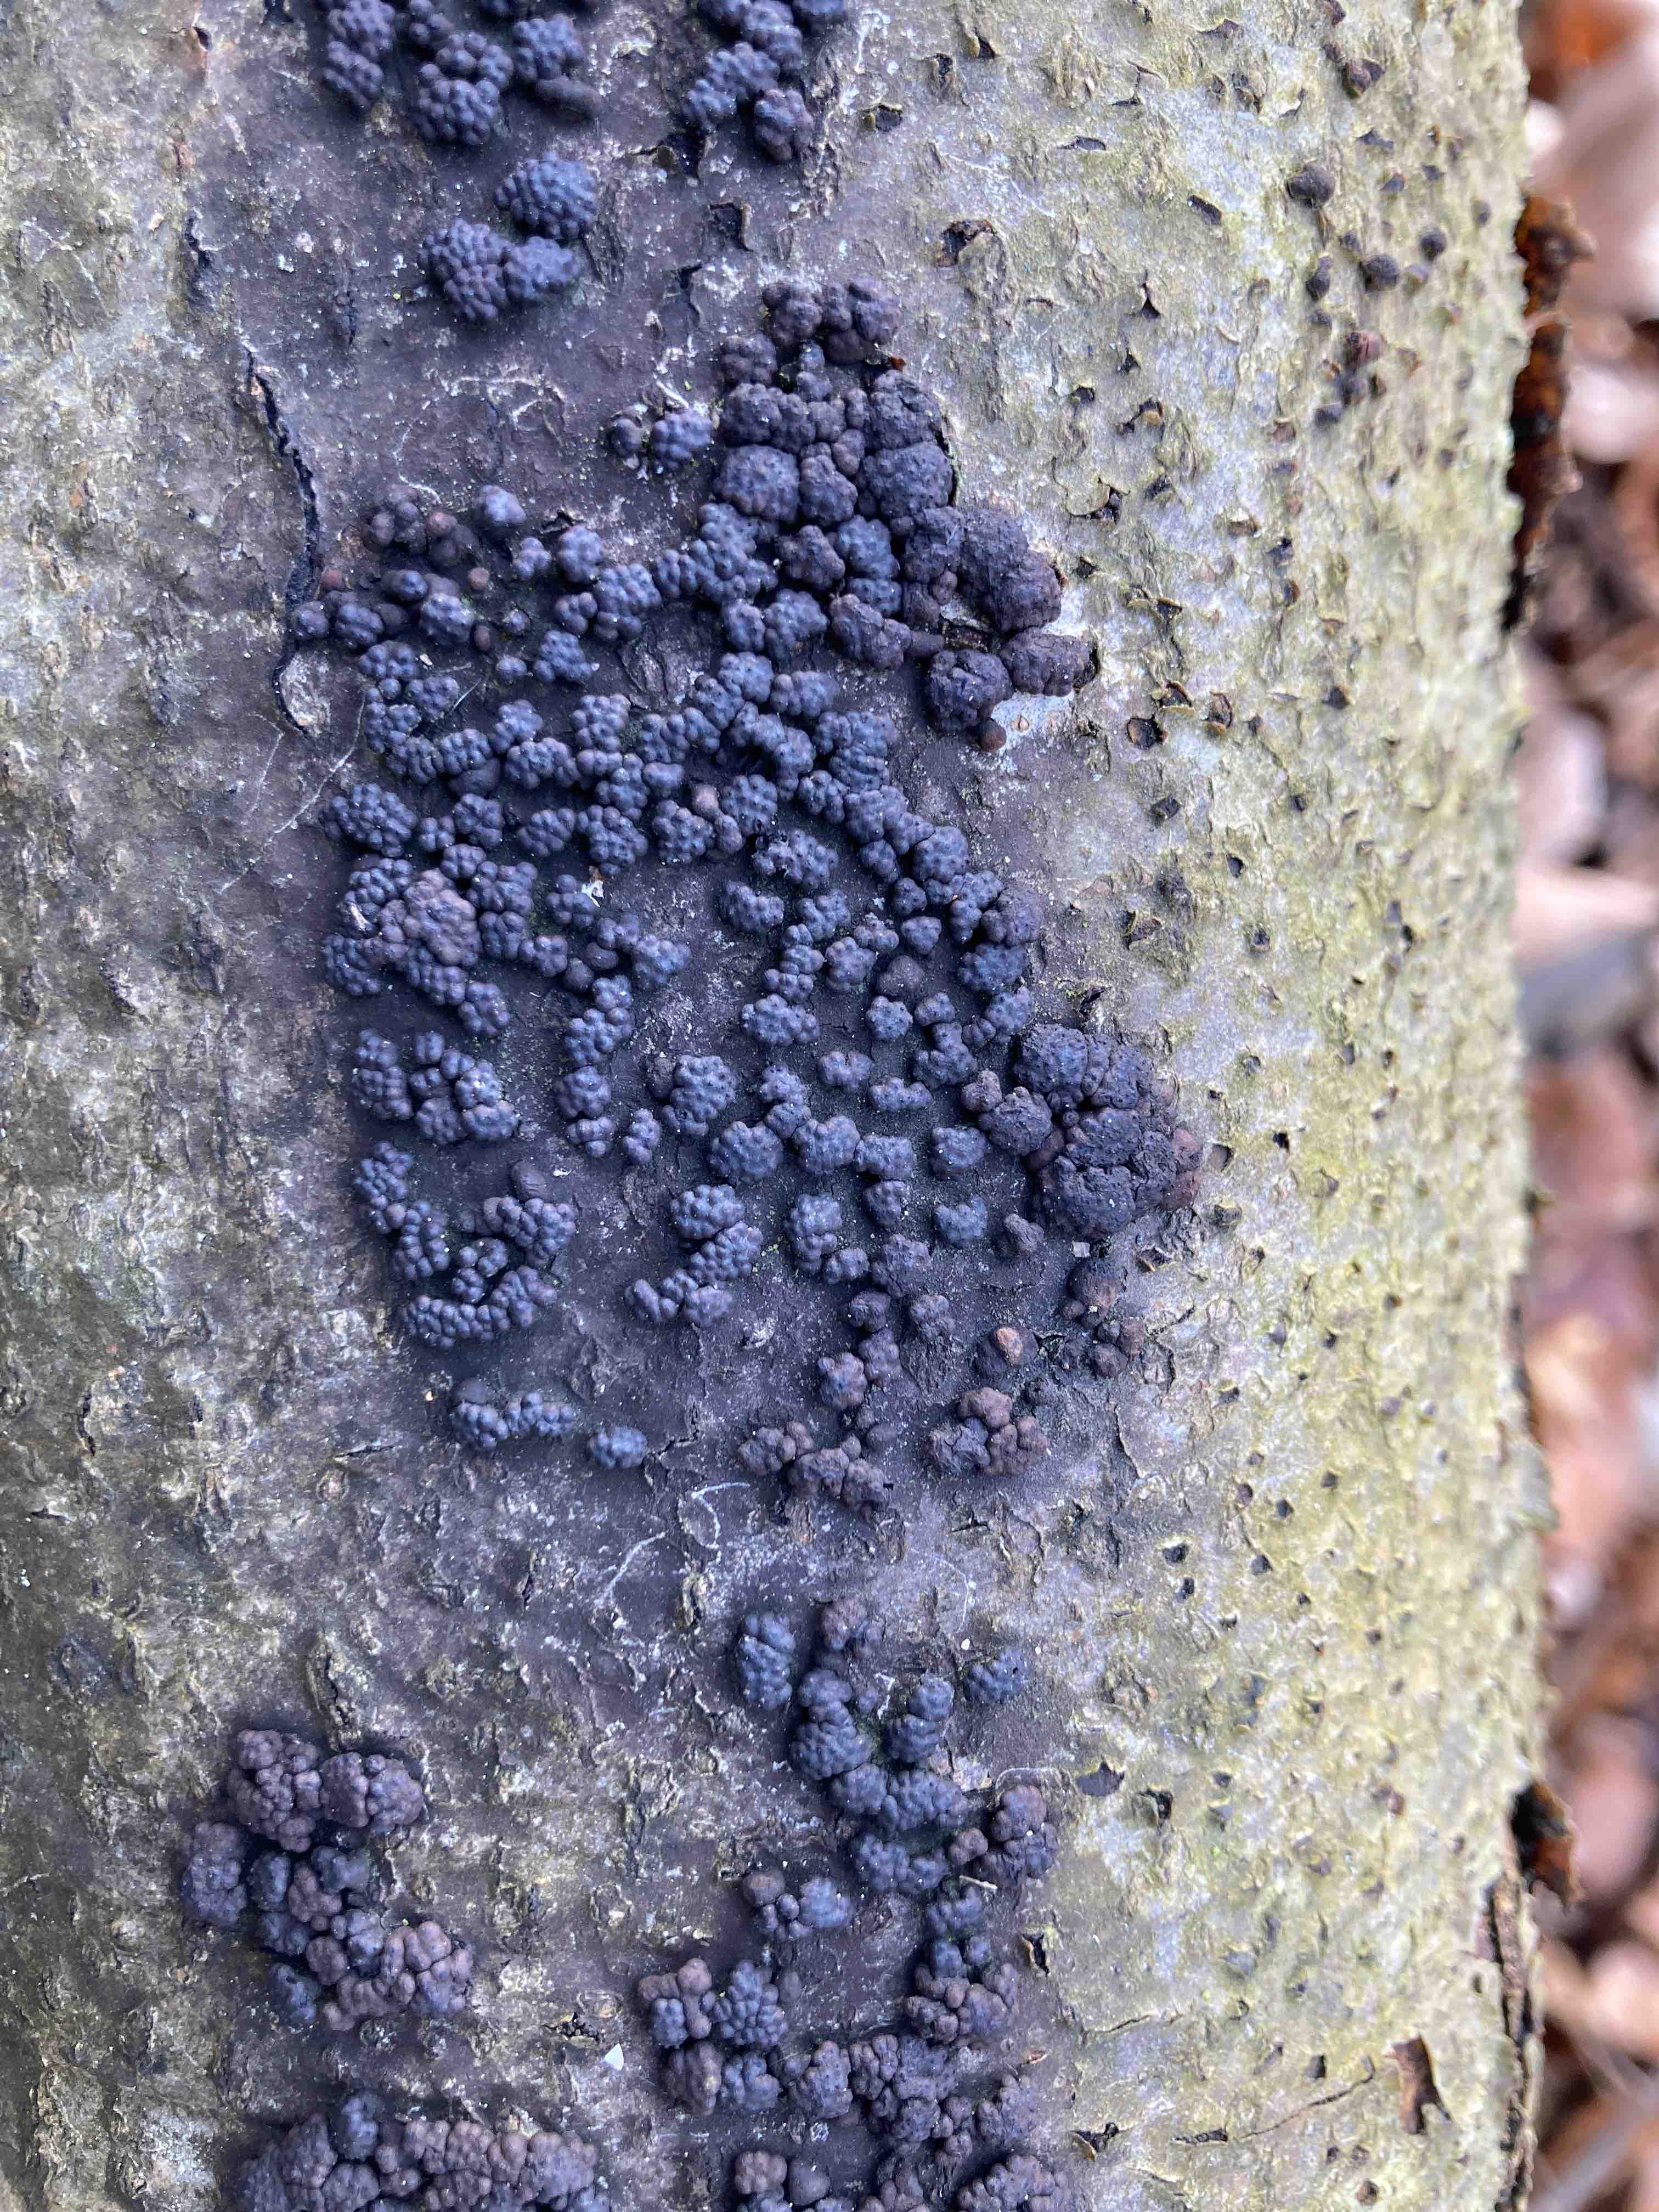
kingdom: Fungi
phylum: Ascomycota
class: Sordariomycetes
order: Xylariales
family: Hypoxylaceae
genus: Jackrogersella
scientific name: Jackrogersella cohaerens
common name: sammenflydende kulbær
